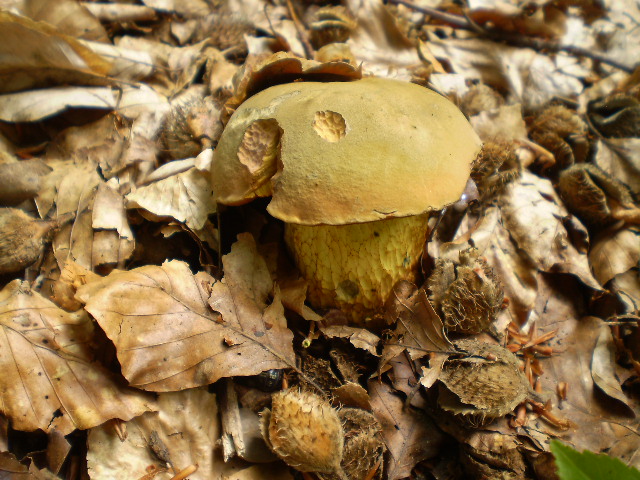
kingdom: Fungi
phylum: Basidiomycota
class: Agaricomycetes
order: Boletales
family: Boletaceae
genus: Suillellus
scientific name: Suillellus luridus
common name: netstokket indigorørhat
